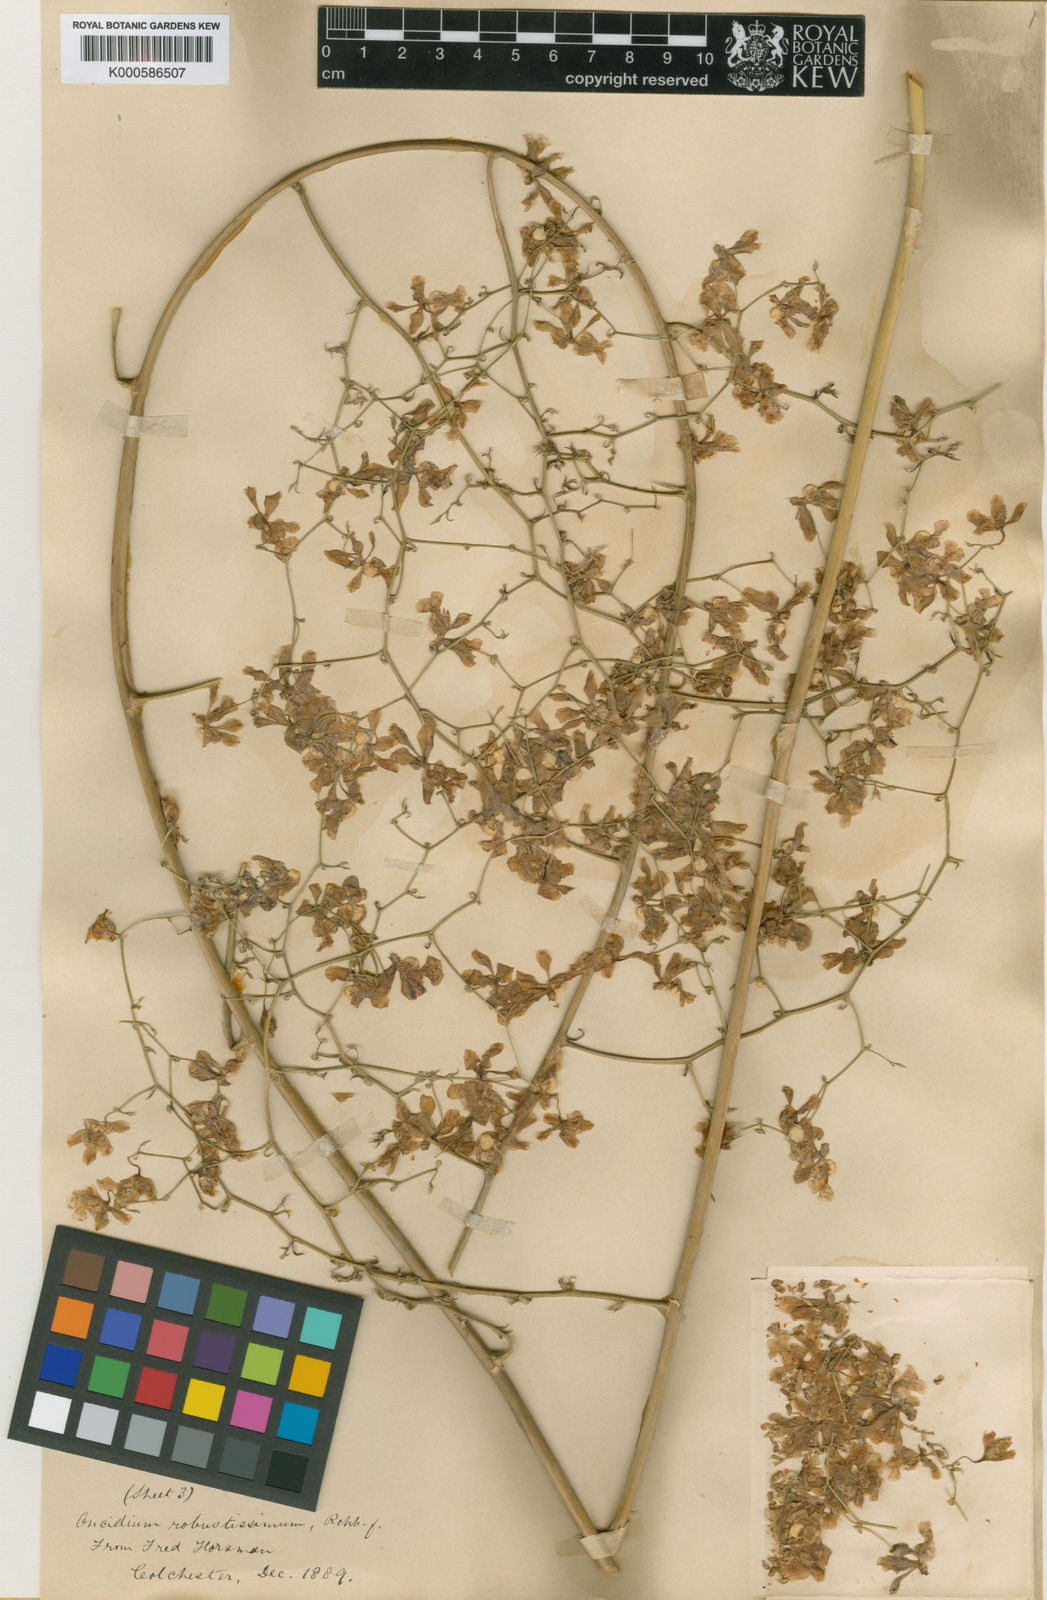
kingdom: Plantae
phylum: Tracheophyta
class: Liliopsida
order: Asparagales
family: Orchidaceae
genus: Grandiphyllum
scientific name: Grandiphyllum divaricatum
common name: Mule-ear orchid
